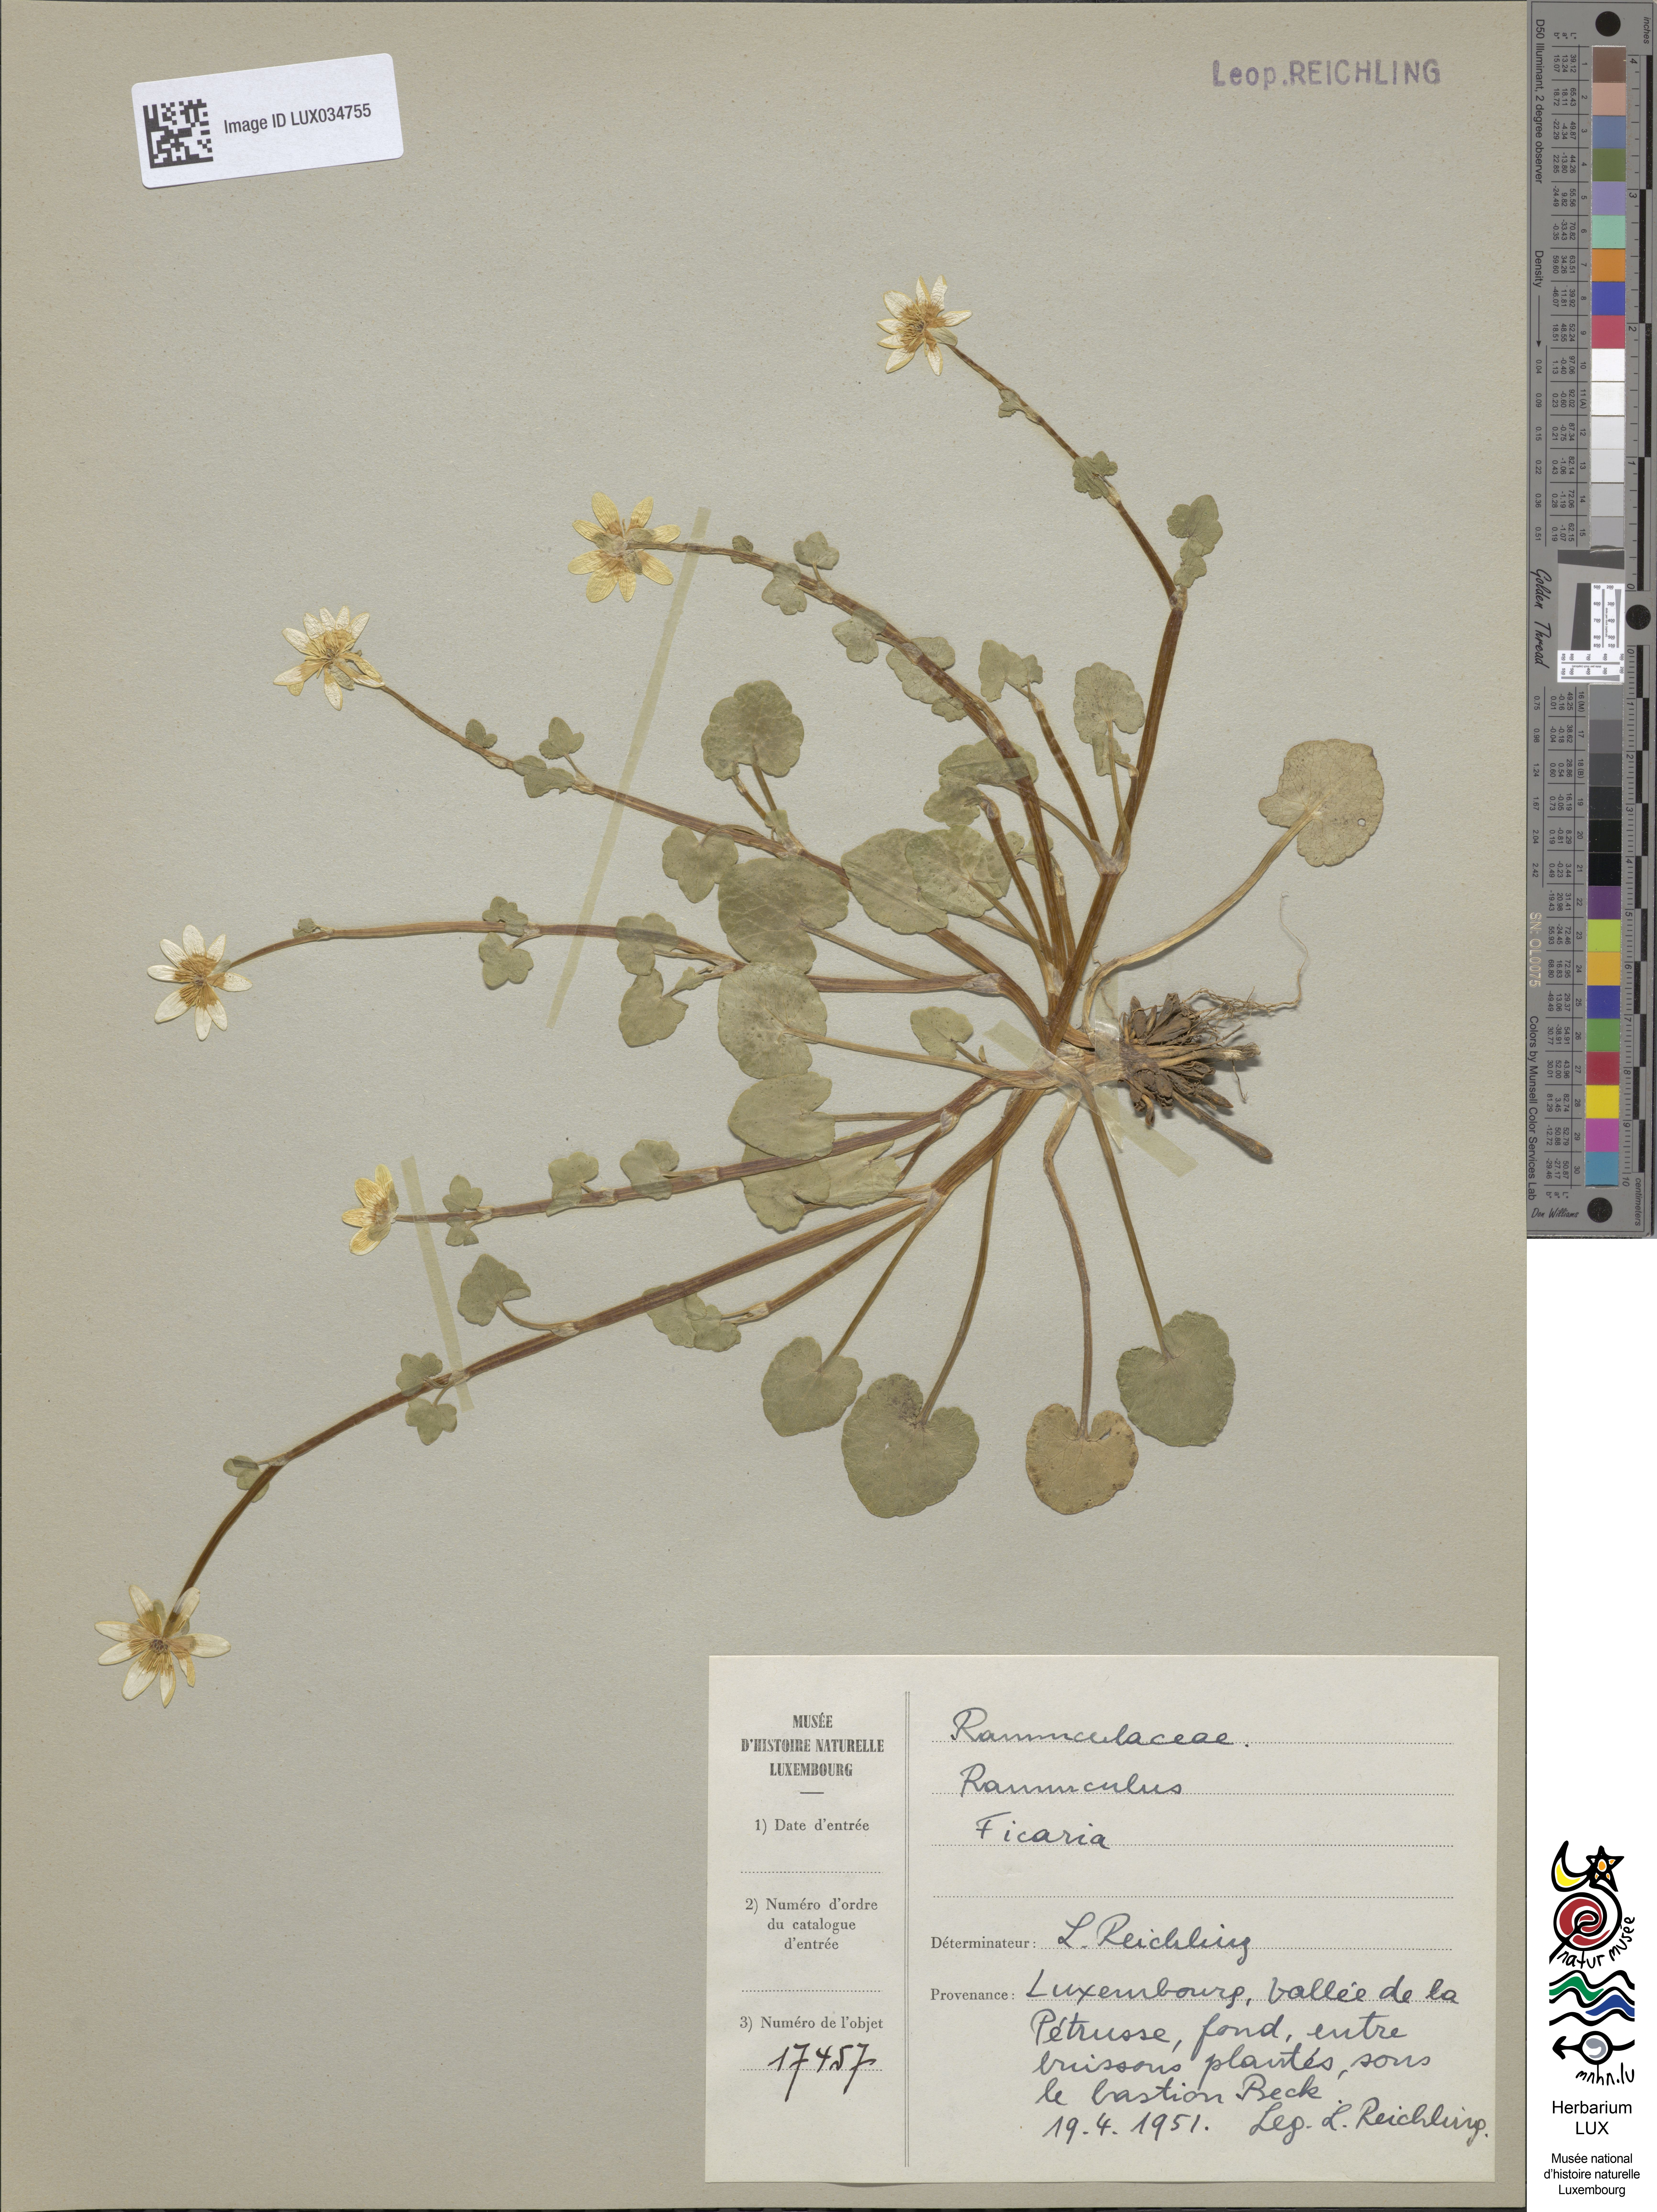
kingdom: Plantae
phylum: Tracheophyta
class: Magnoliopsida
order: Ranunculales
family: Ranunculaceae
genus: Ficaria
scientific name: Ficaria verna
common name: Lesser celandine
